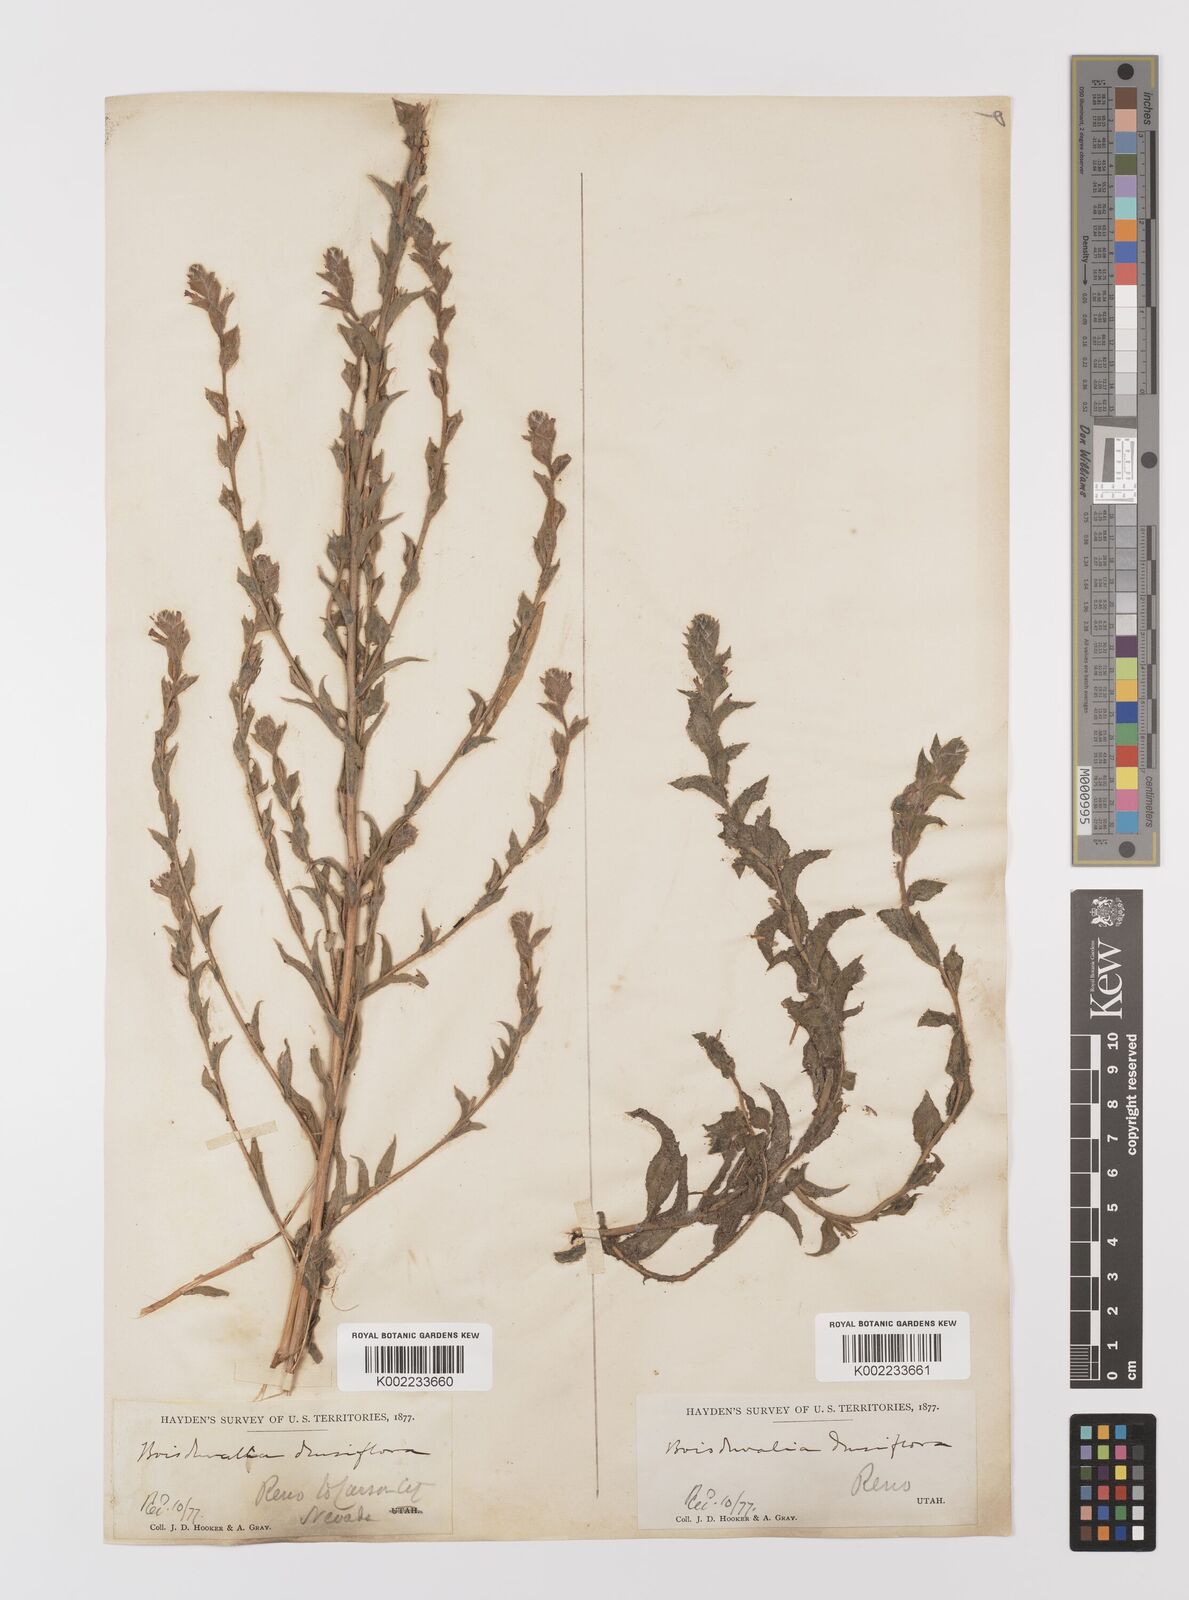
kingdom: Plantae
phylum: Tracheophyta
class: Magnoliopsida
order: Myrtales
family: Onagraceae
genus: Epilobium
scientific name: Epilobium densiflorum
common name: Dense spike-primrose
